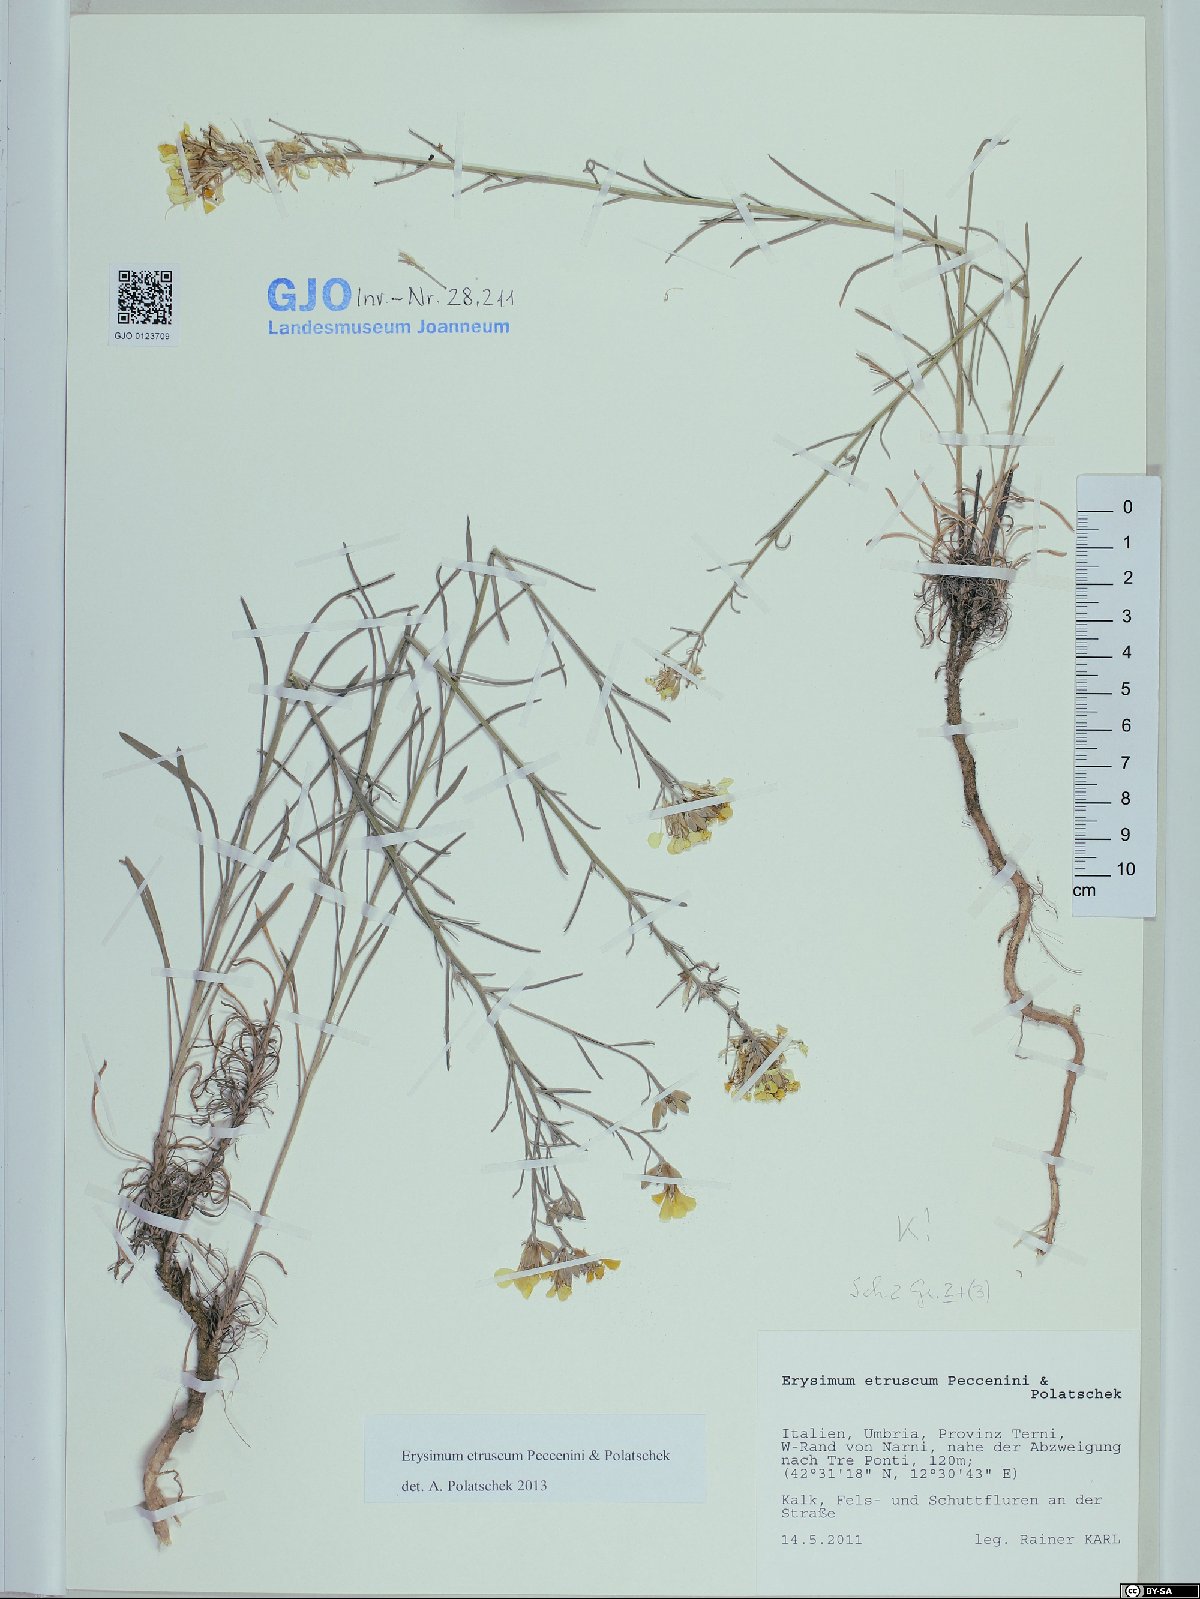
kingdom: Plantae
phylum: Tracheophyta
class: Magnoliopsida
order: Brassicales
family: Brassicaceae
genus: Erysimum
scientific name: Erysimum pseudorhaeticum
